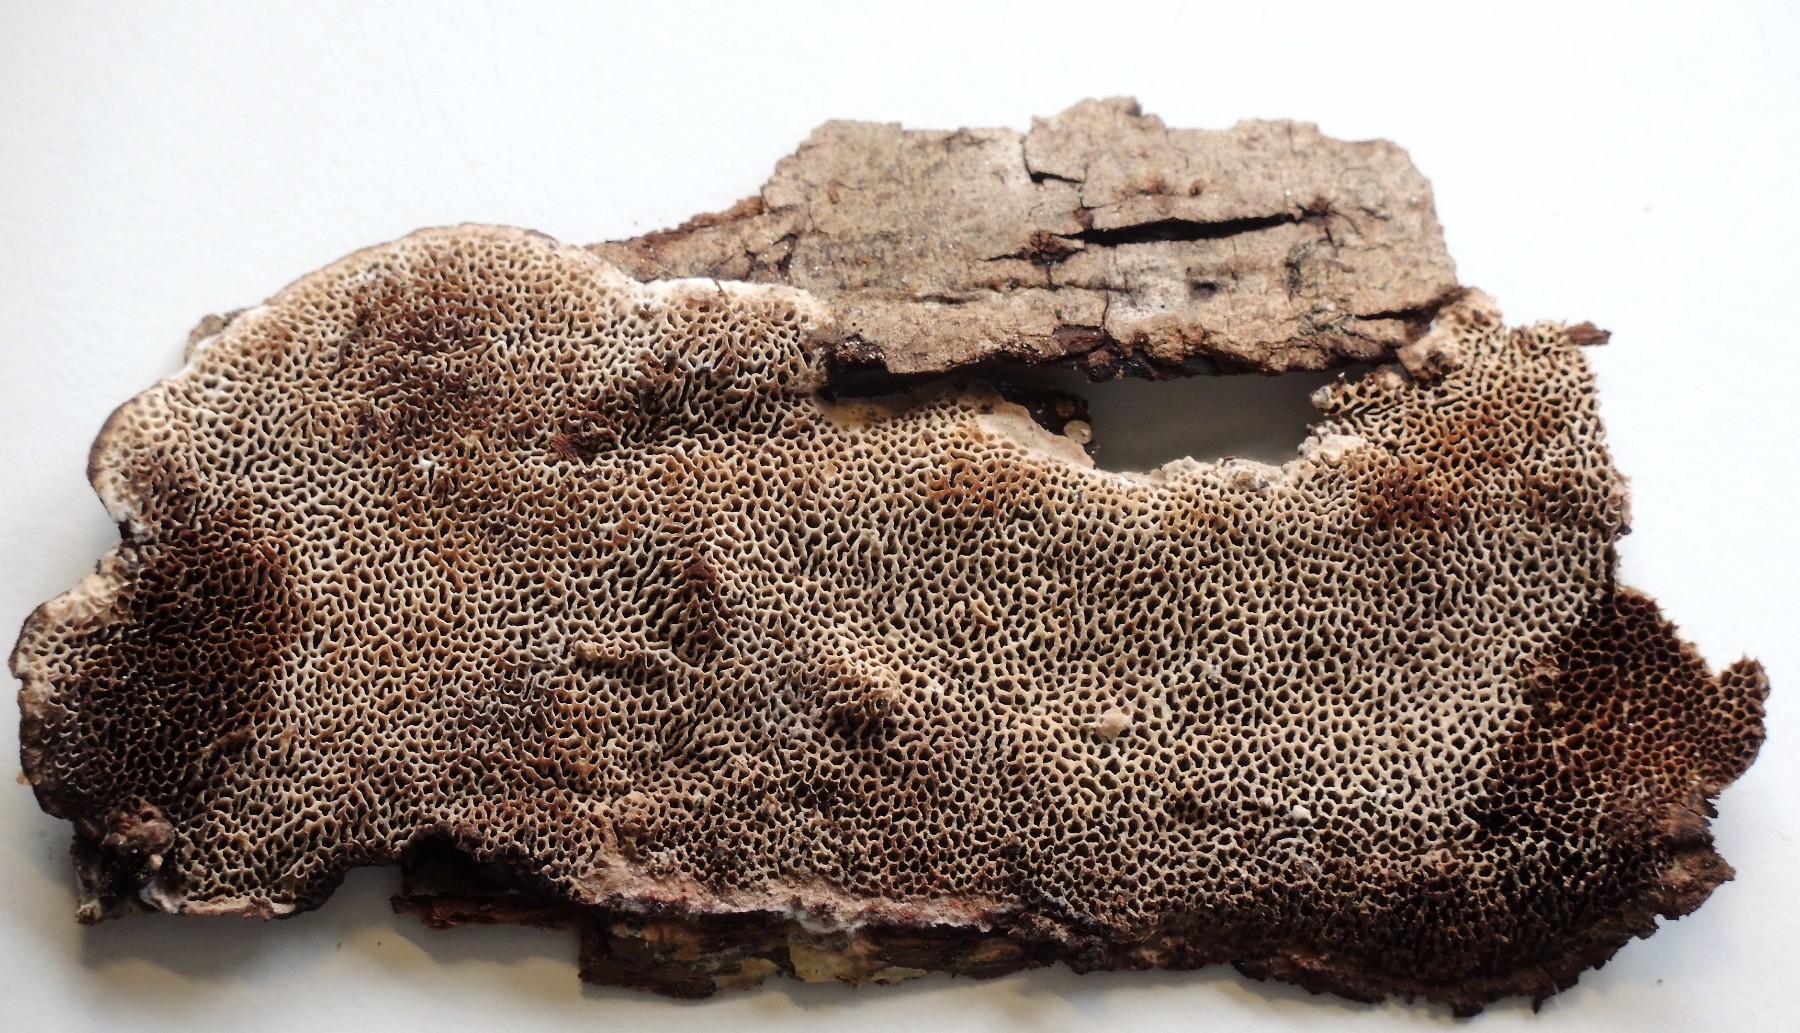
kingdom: Fungi
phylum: Basidiomycota
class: Agaricomycetes
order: Polyporales
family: Polyporaceae
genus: Podofomes
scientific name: Podofomes mollis
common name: blød begporesvamp
